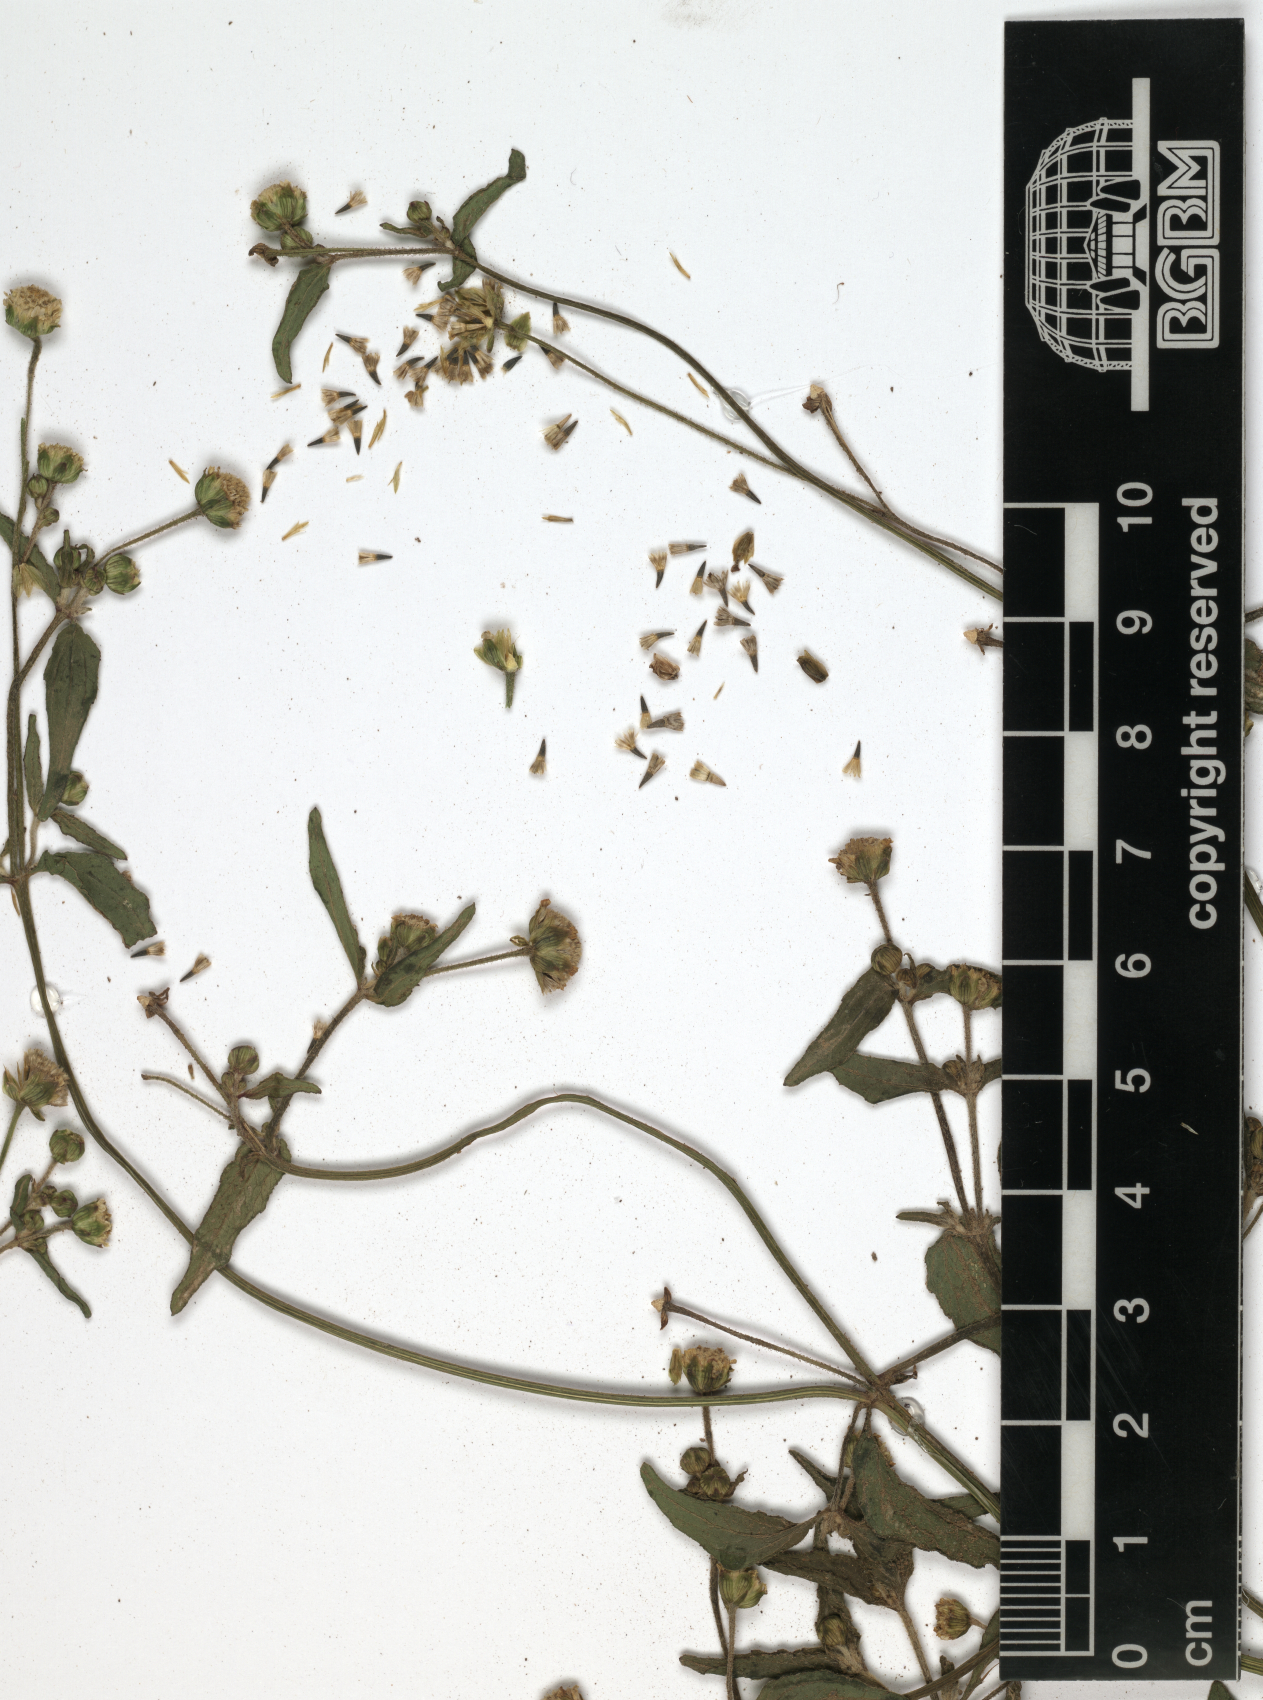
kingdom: Plantae
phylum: Tracheophyta
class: Magnoliopsida
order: Asterales
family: Asteraceae
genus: Galinsoga
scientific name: Galinsoga parviflora
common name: Gallant soldier
